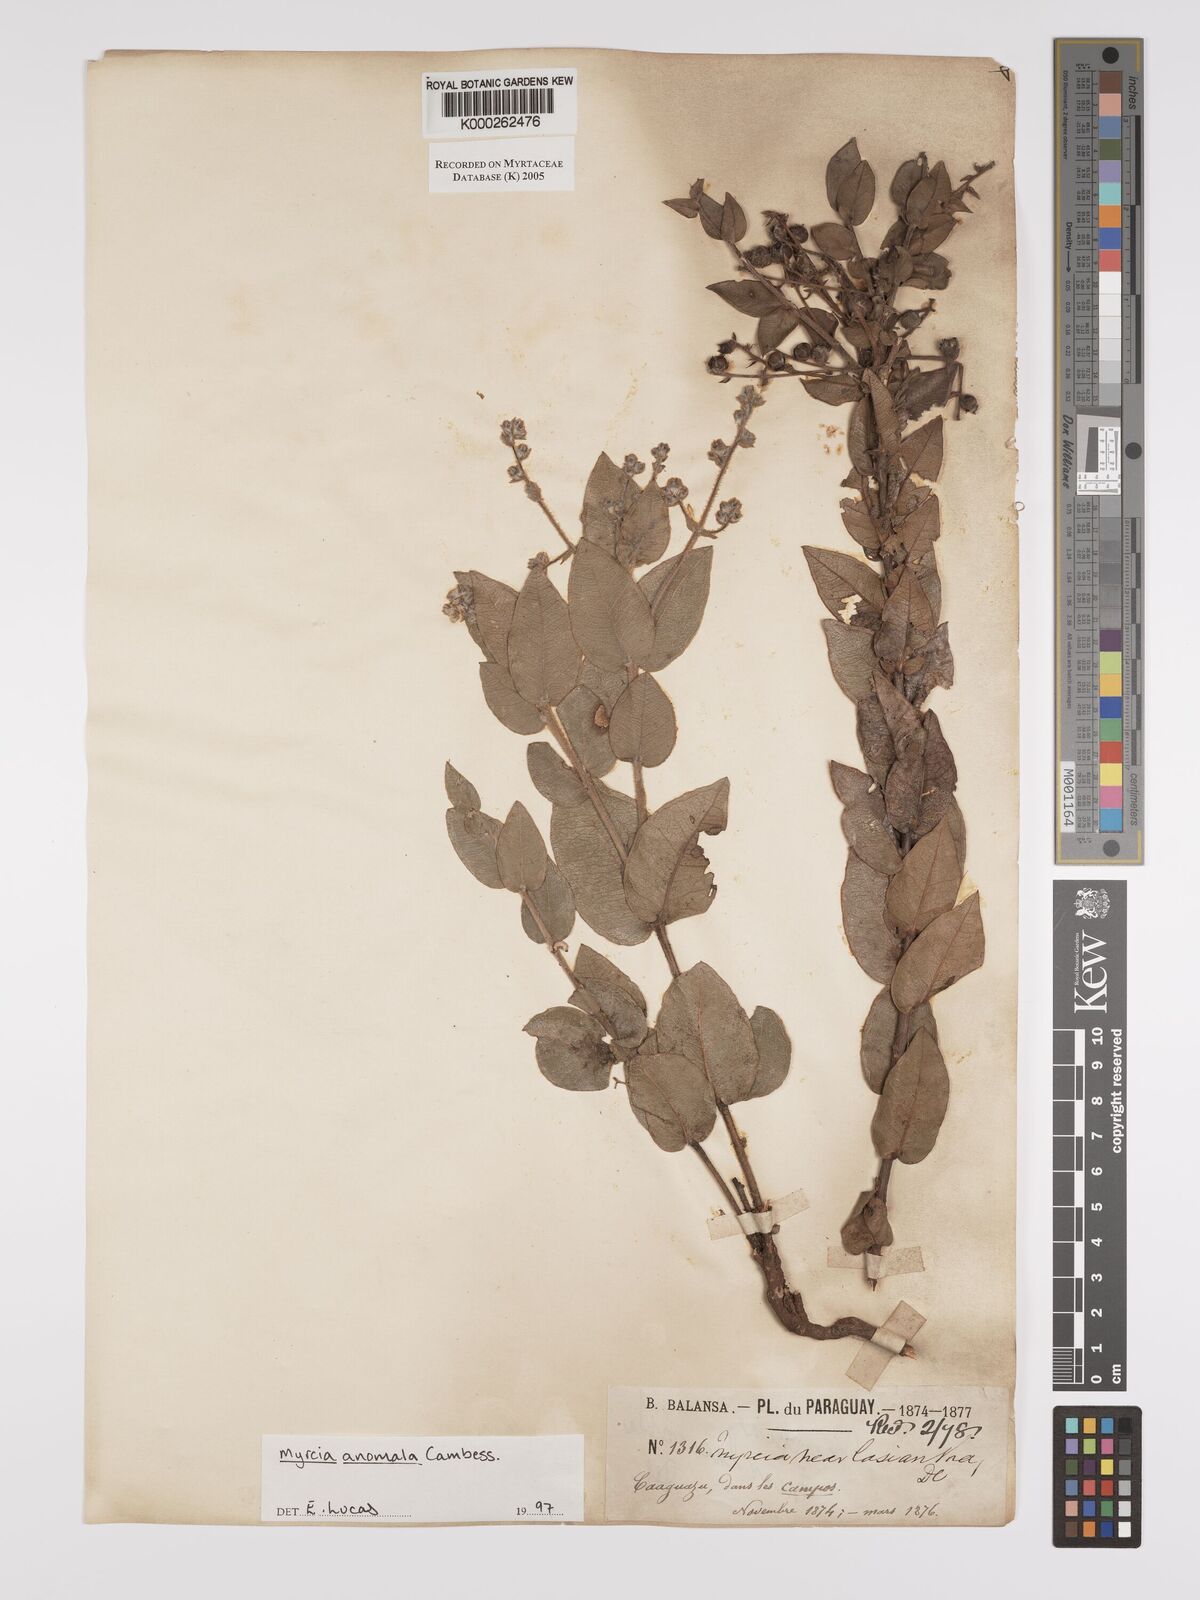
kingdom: Plantae
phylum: Tracheophyta
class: Magnoliopsida
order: Myrtales
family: Myrtaceae
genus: Myrcia
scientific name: Myrcia anomala
